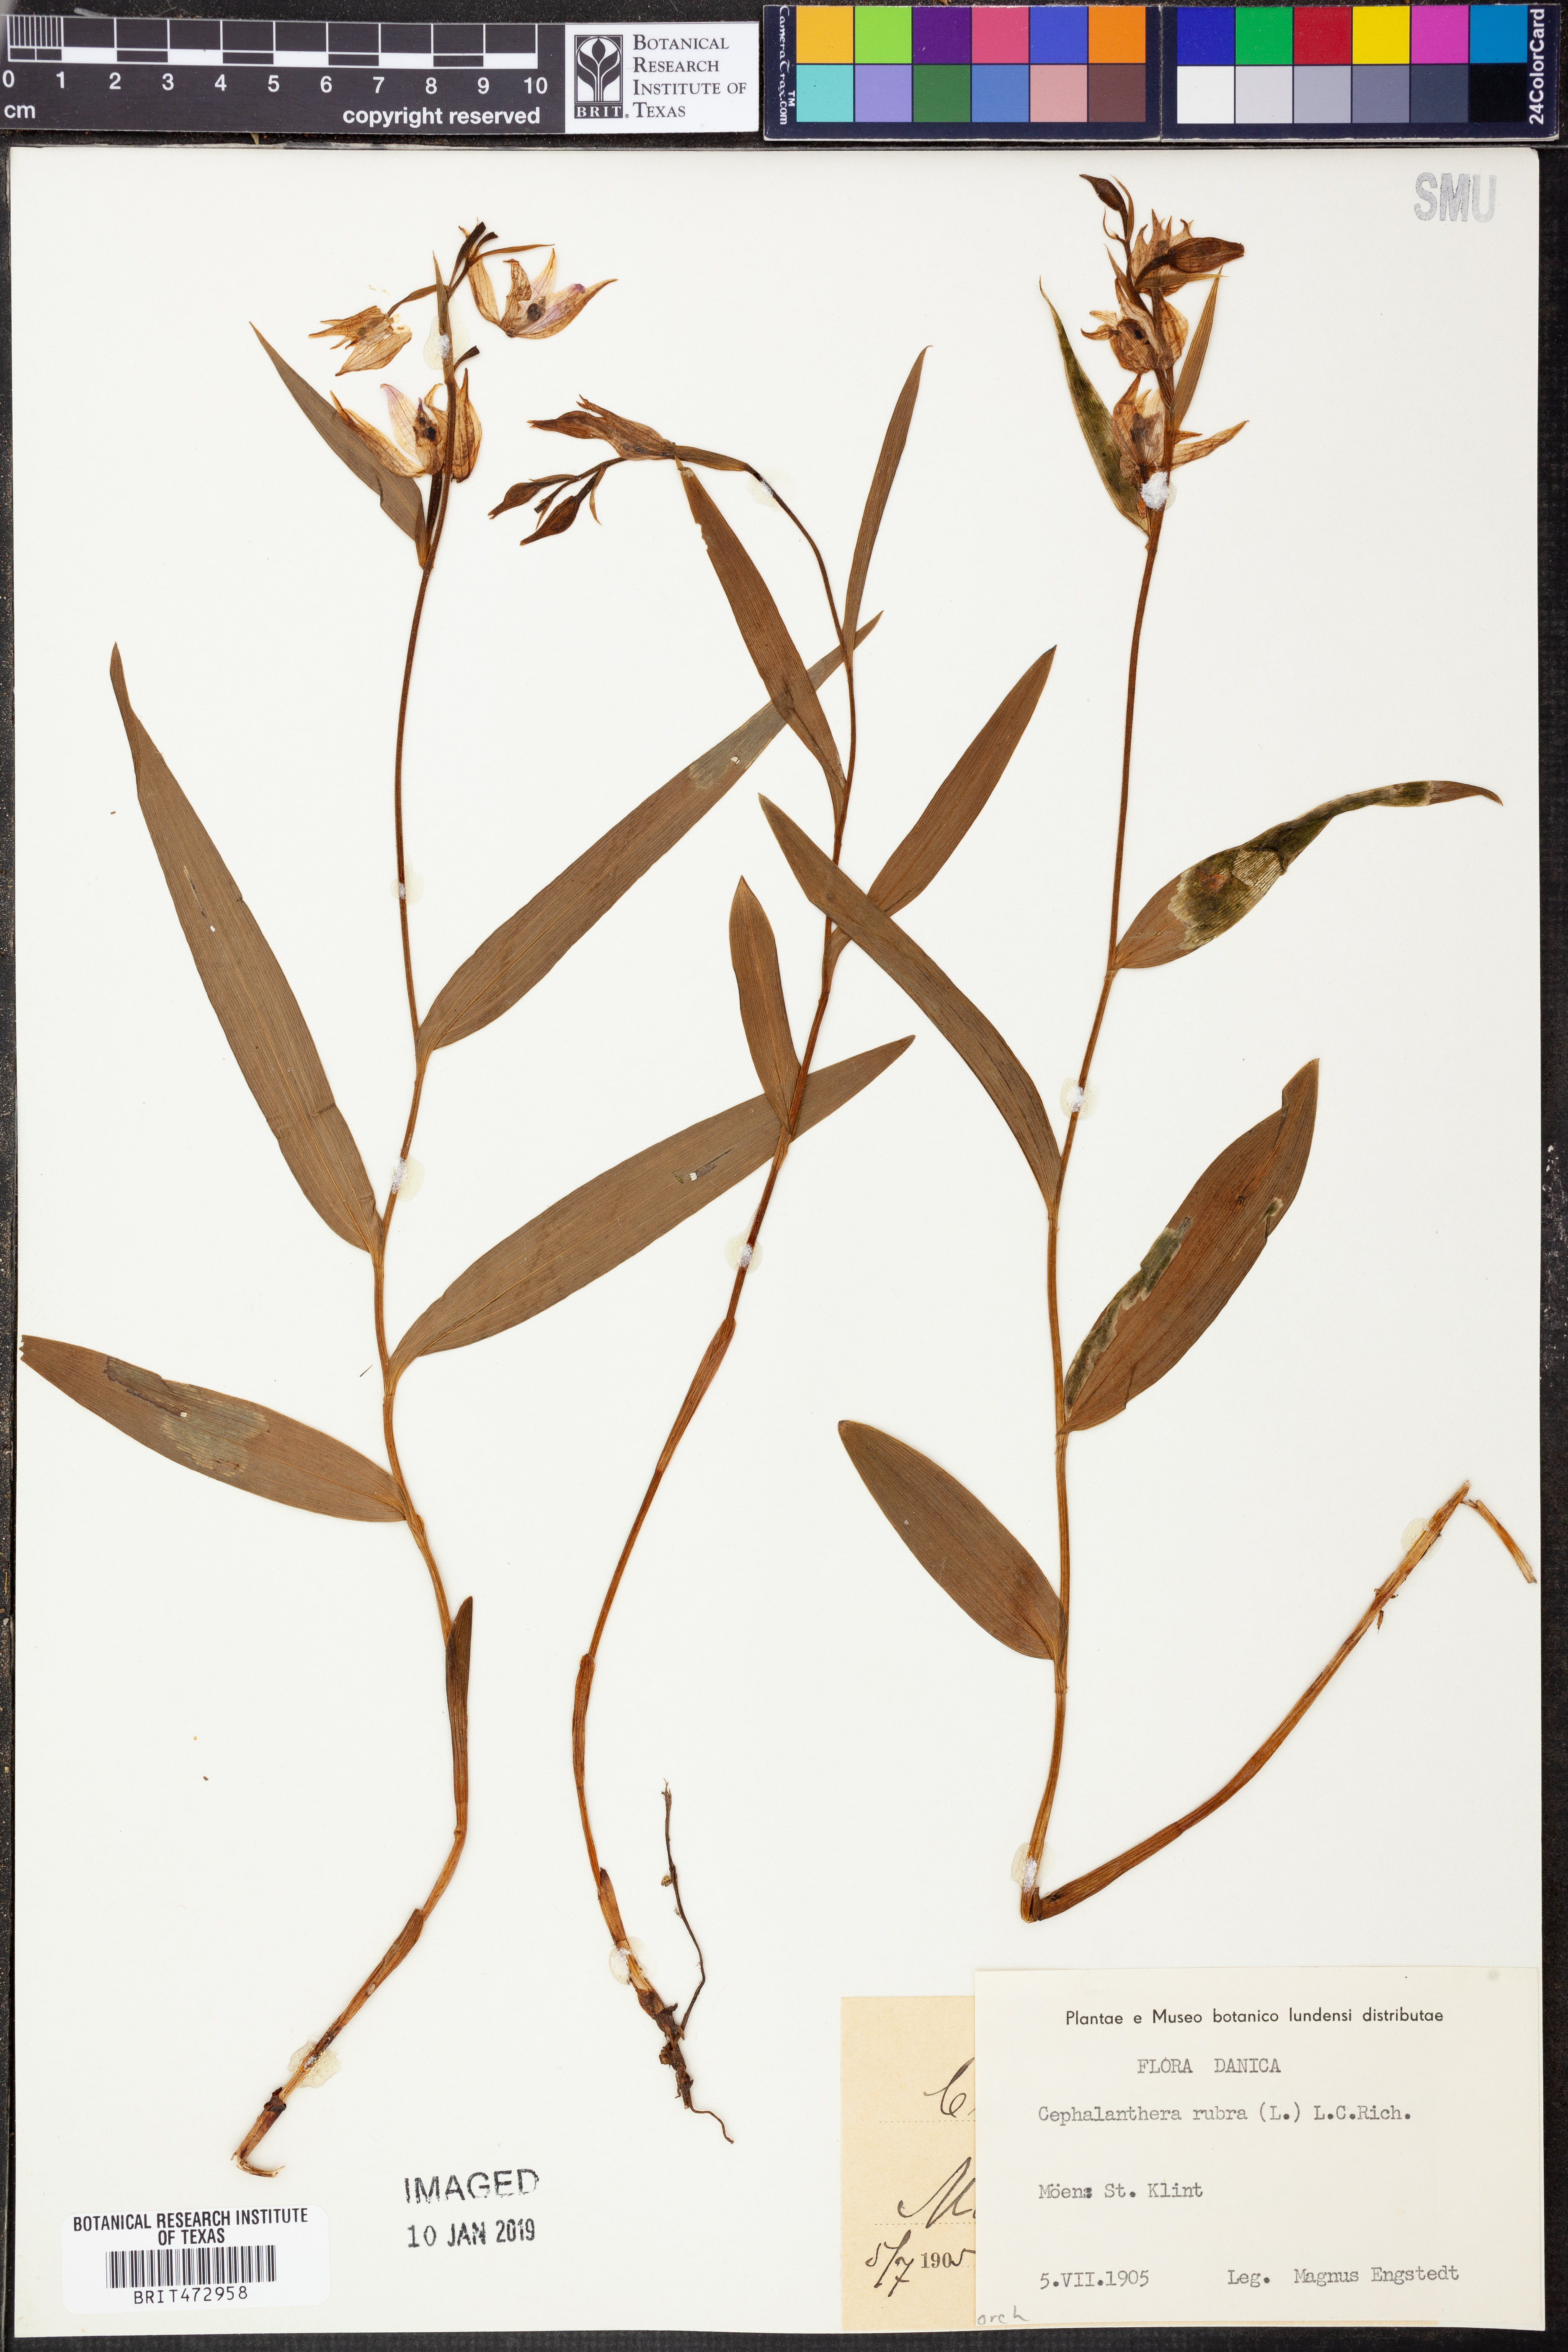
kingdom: Plantae
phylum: Tracheophyta
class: Liliopsida
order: Asparagales
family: Orchidaceae
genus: Cephalanthera
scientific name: Cephalanthera rubra
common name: Red helleborine
